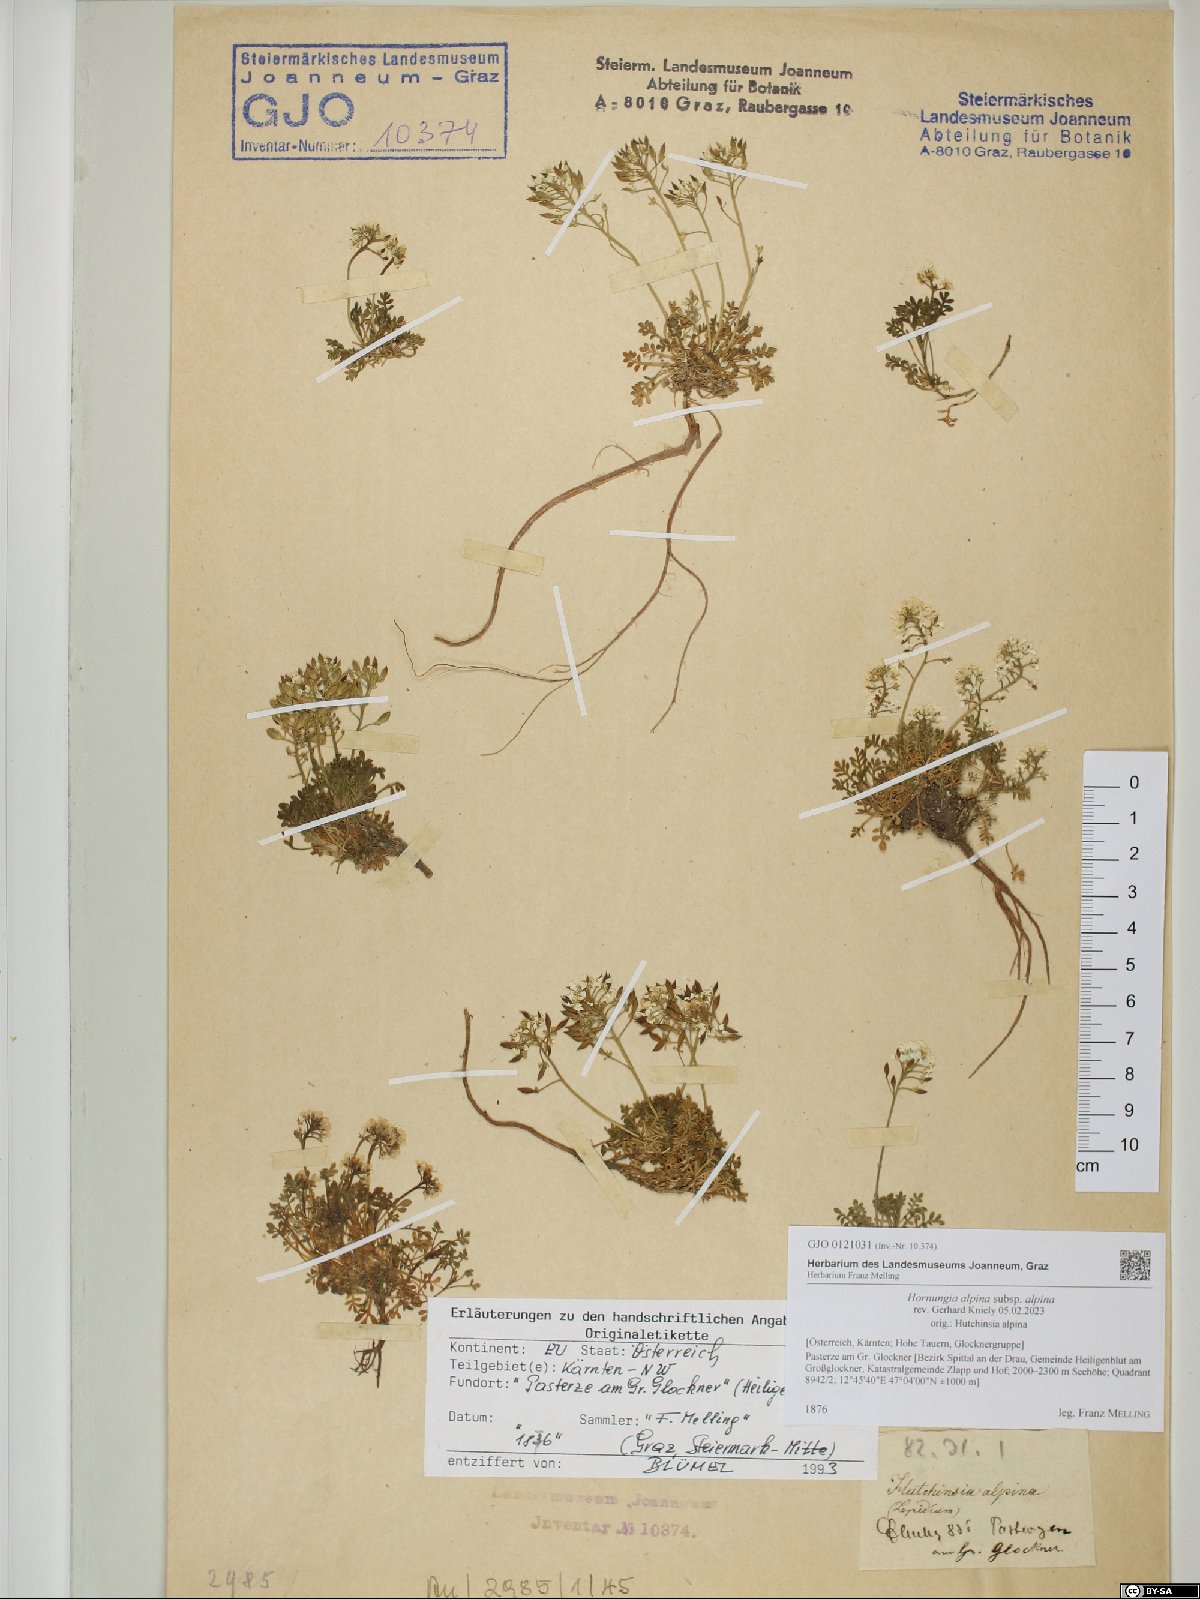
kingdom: Plantae
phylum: Tracheophyta
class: Magnoliopsida
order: Brassicales
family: Brassicaceae
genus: Hornungia
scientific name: Hornungia alpina
